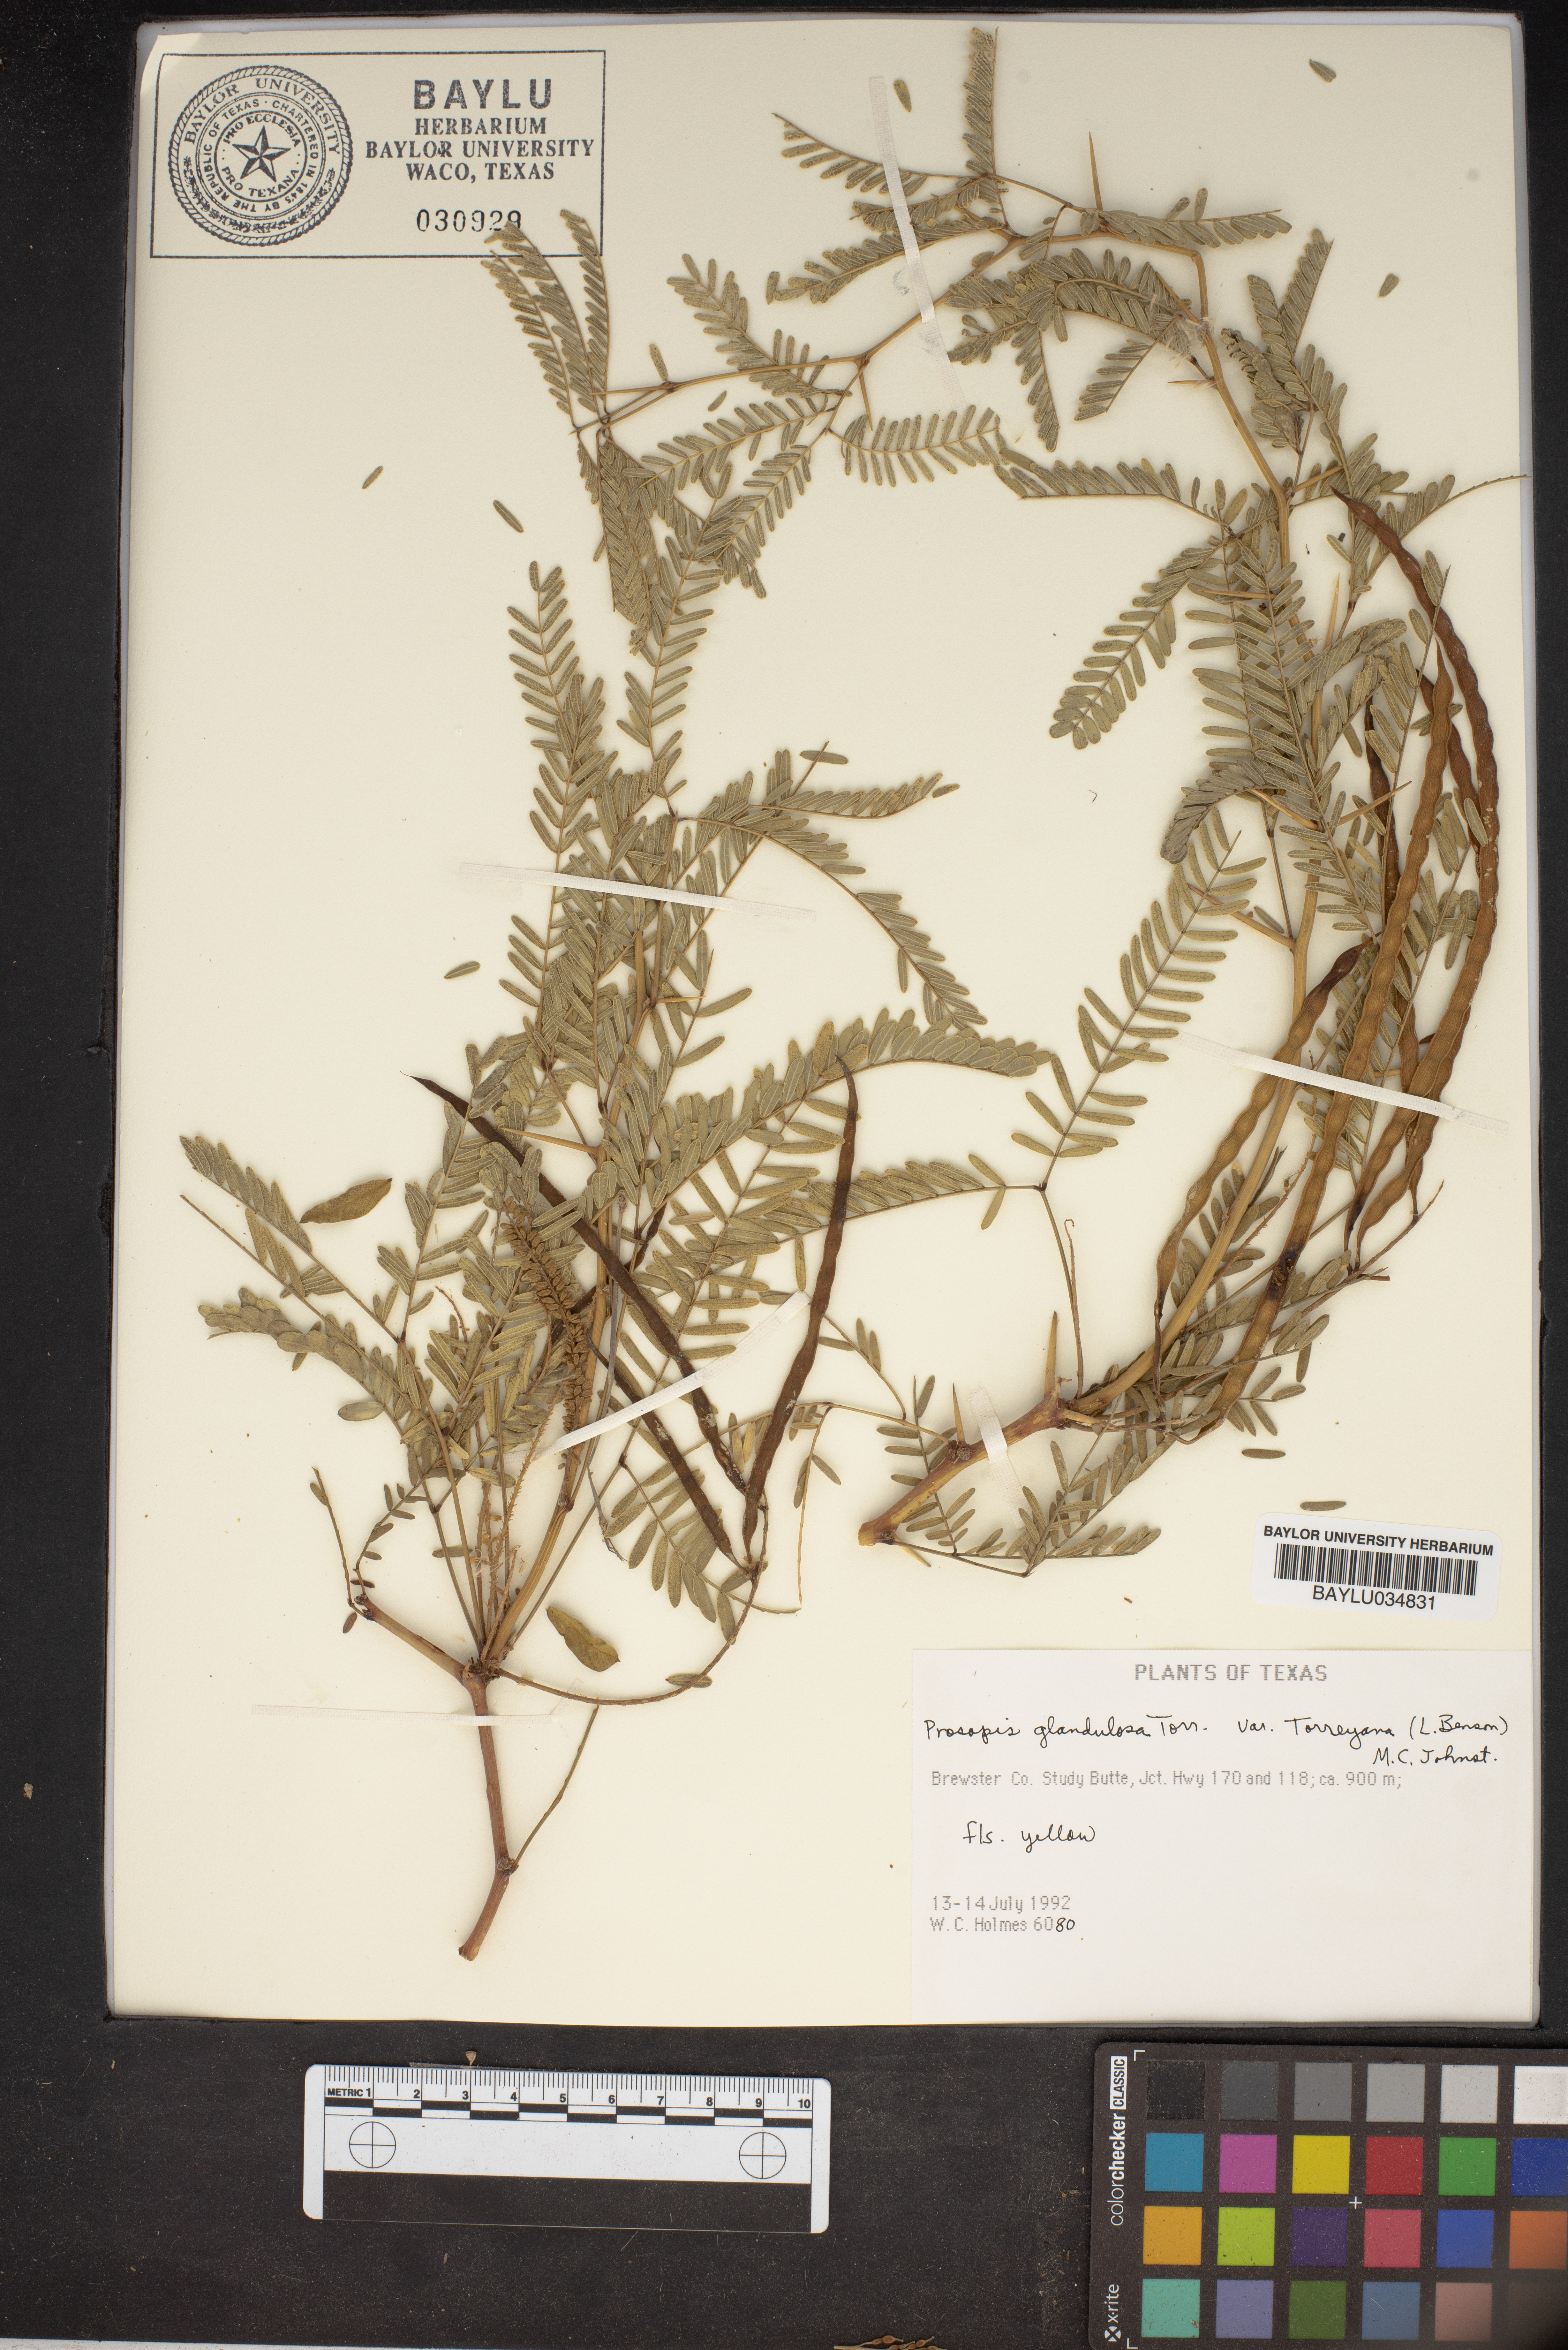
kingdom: Plantae
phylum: Tracheophyta
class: Magnoliopsida
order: Fabales
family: Fabaceae
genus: Prosopis
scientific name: Prosopis glandulosa
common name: Honey mesquite
